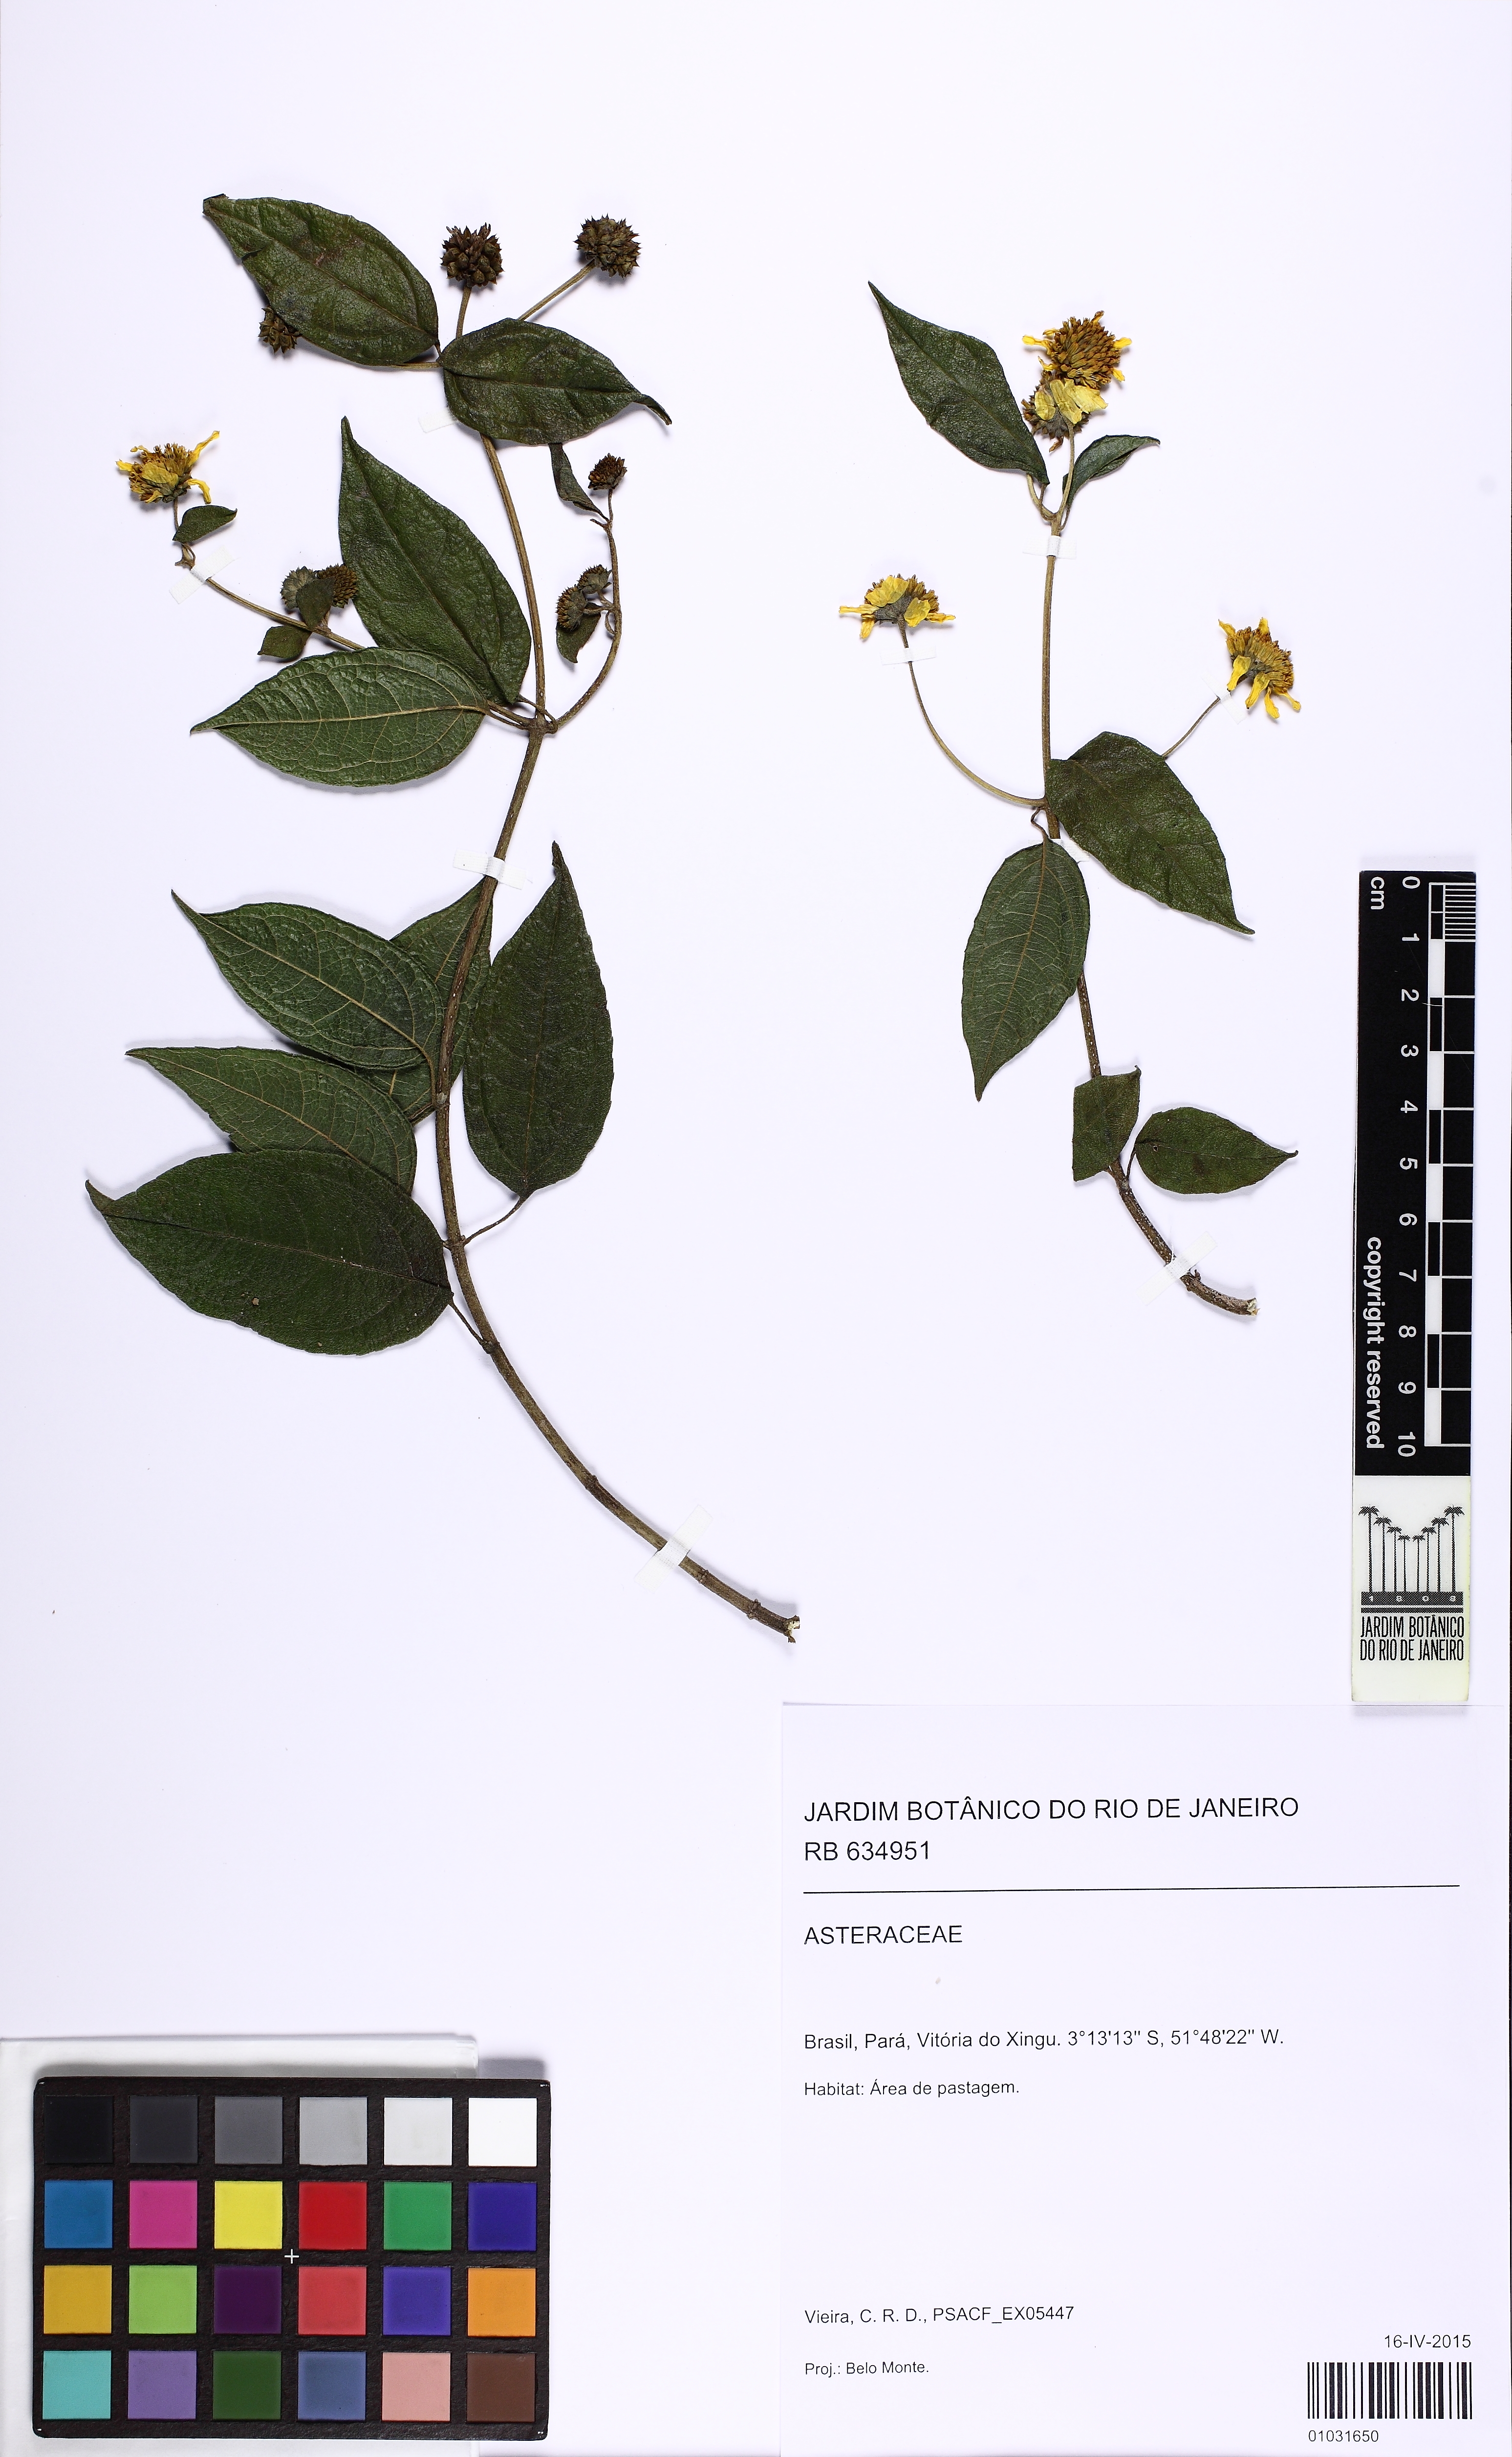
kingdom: Plantae
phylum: Tracheophyta
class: Magnoliopsida
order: Asterales
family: Asteraceae
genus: Tilesia
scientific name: Tilesia baccata
